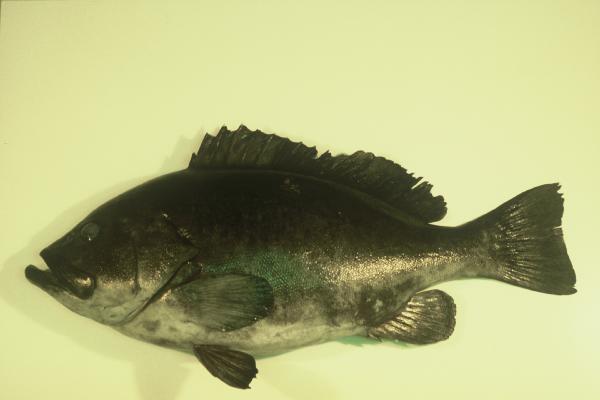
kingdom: Animalia
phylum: Chordata
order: Perciformes
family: Serranidae
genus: Epinephelus
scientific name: Epinephelus multinotatus
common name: Rankin's cod
